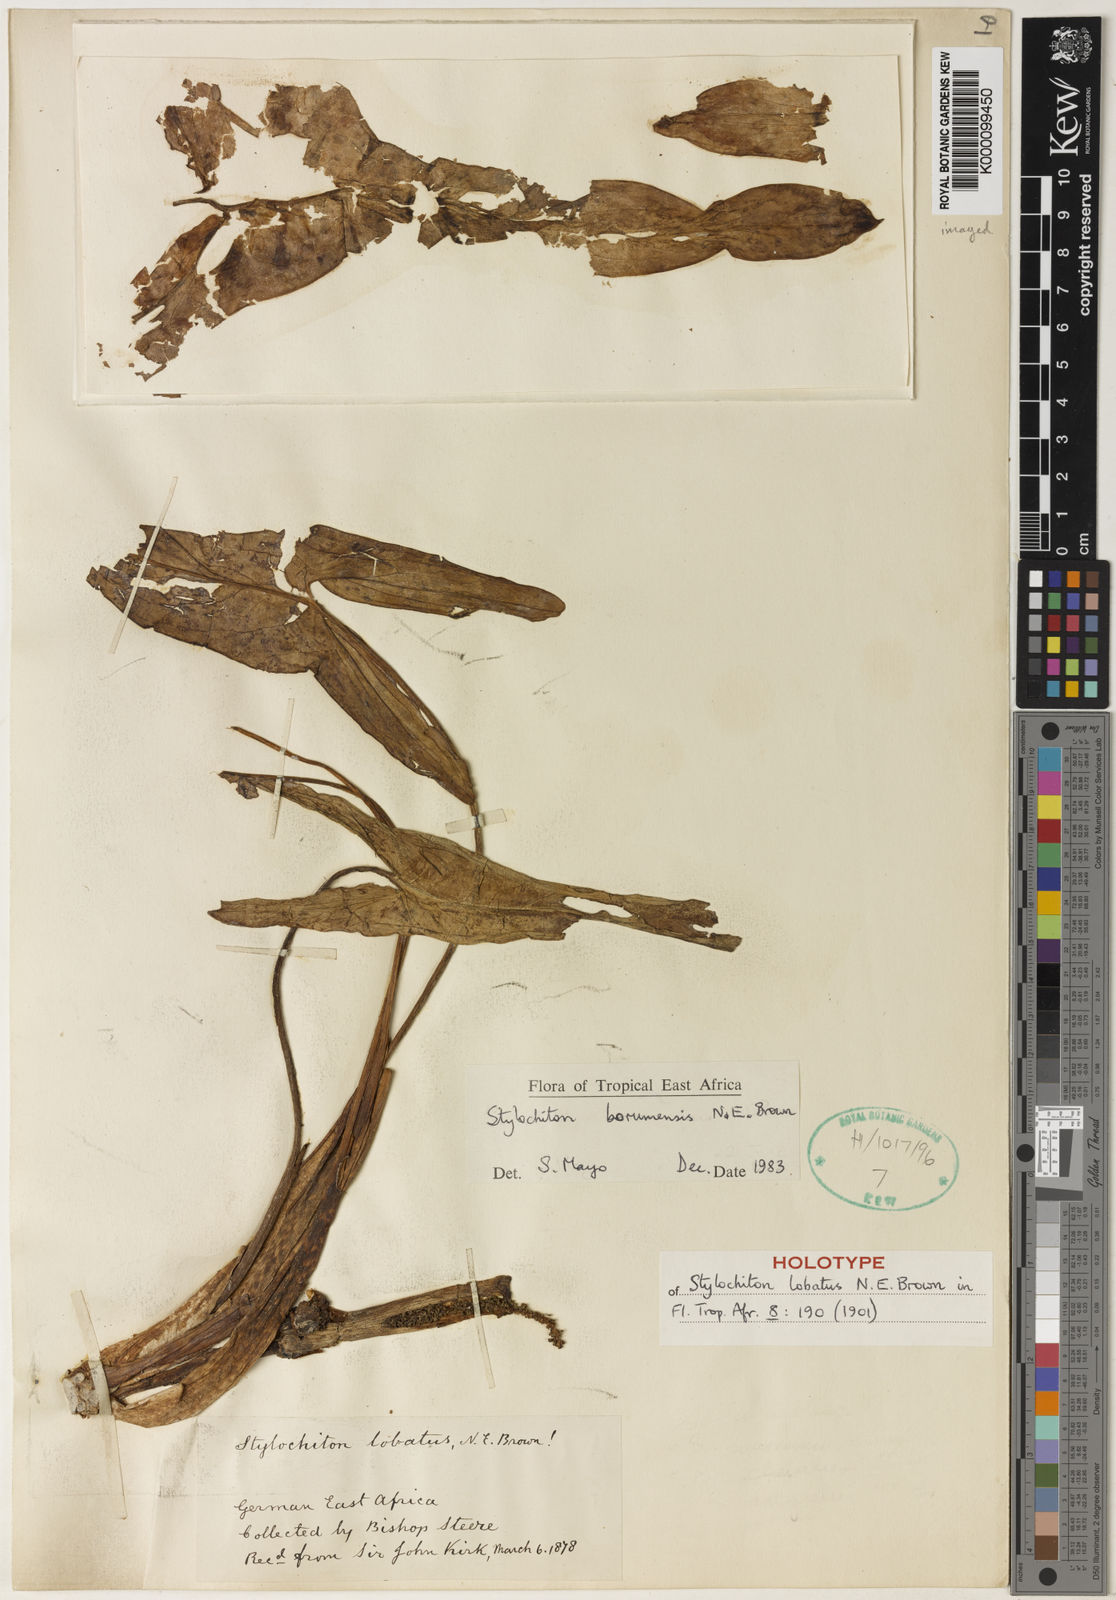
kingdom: Plantae
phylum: Tracheophyta
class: Liliopsida
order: Alismatales
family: Araceae
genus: Stylochaeton
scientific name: Stylochaeton
